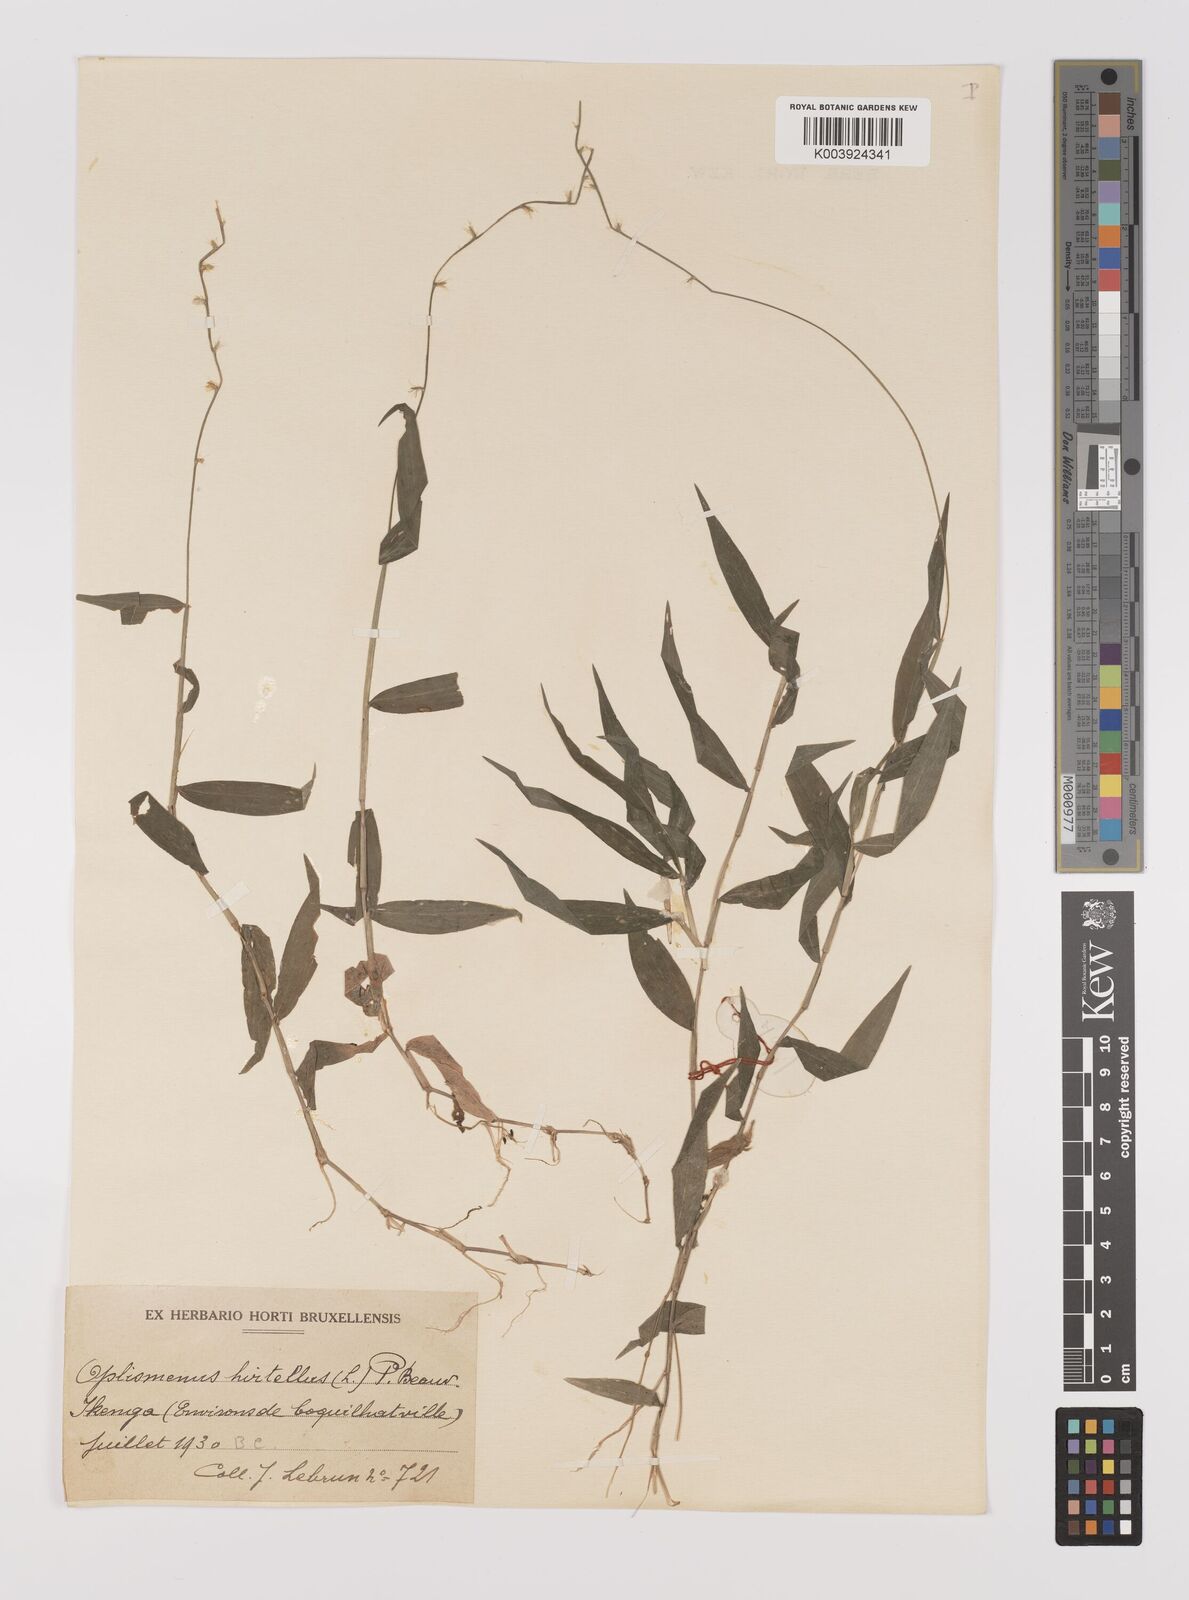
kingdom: Plantae
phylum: Tracheophyta
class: Liliopsida
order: Poales
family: Poaceae
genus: Oplismenus
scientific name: Oplismenus hirtellus
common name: Basketgrass
